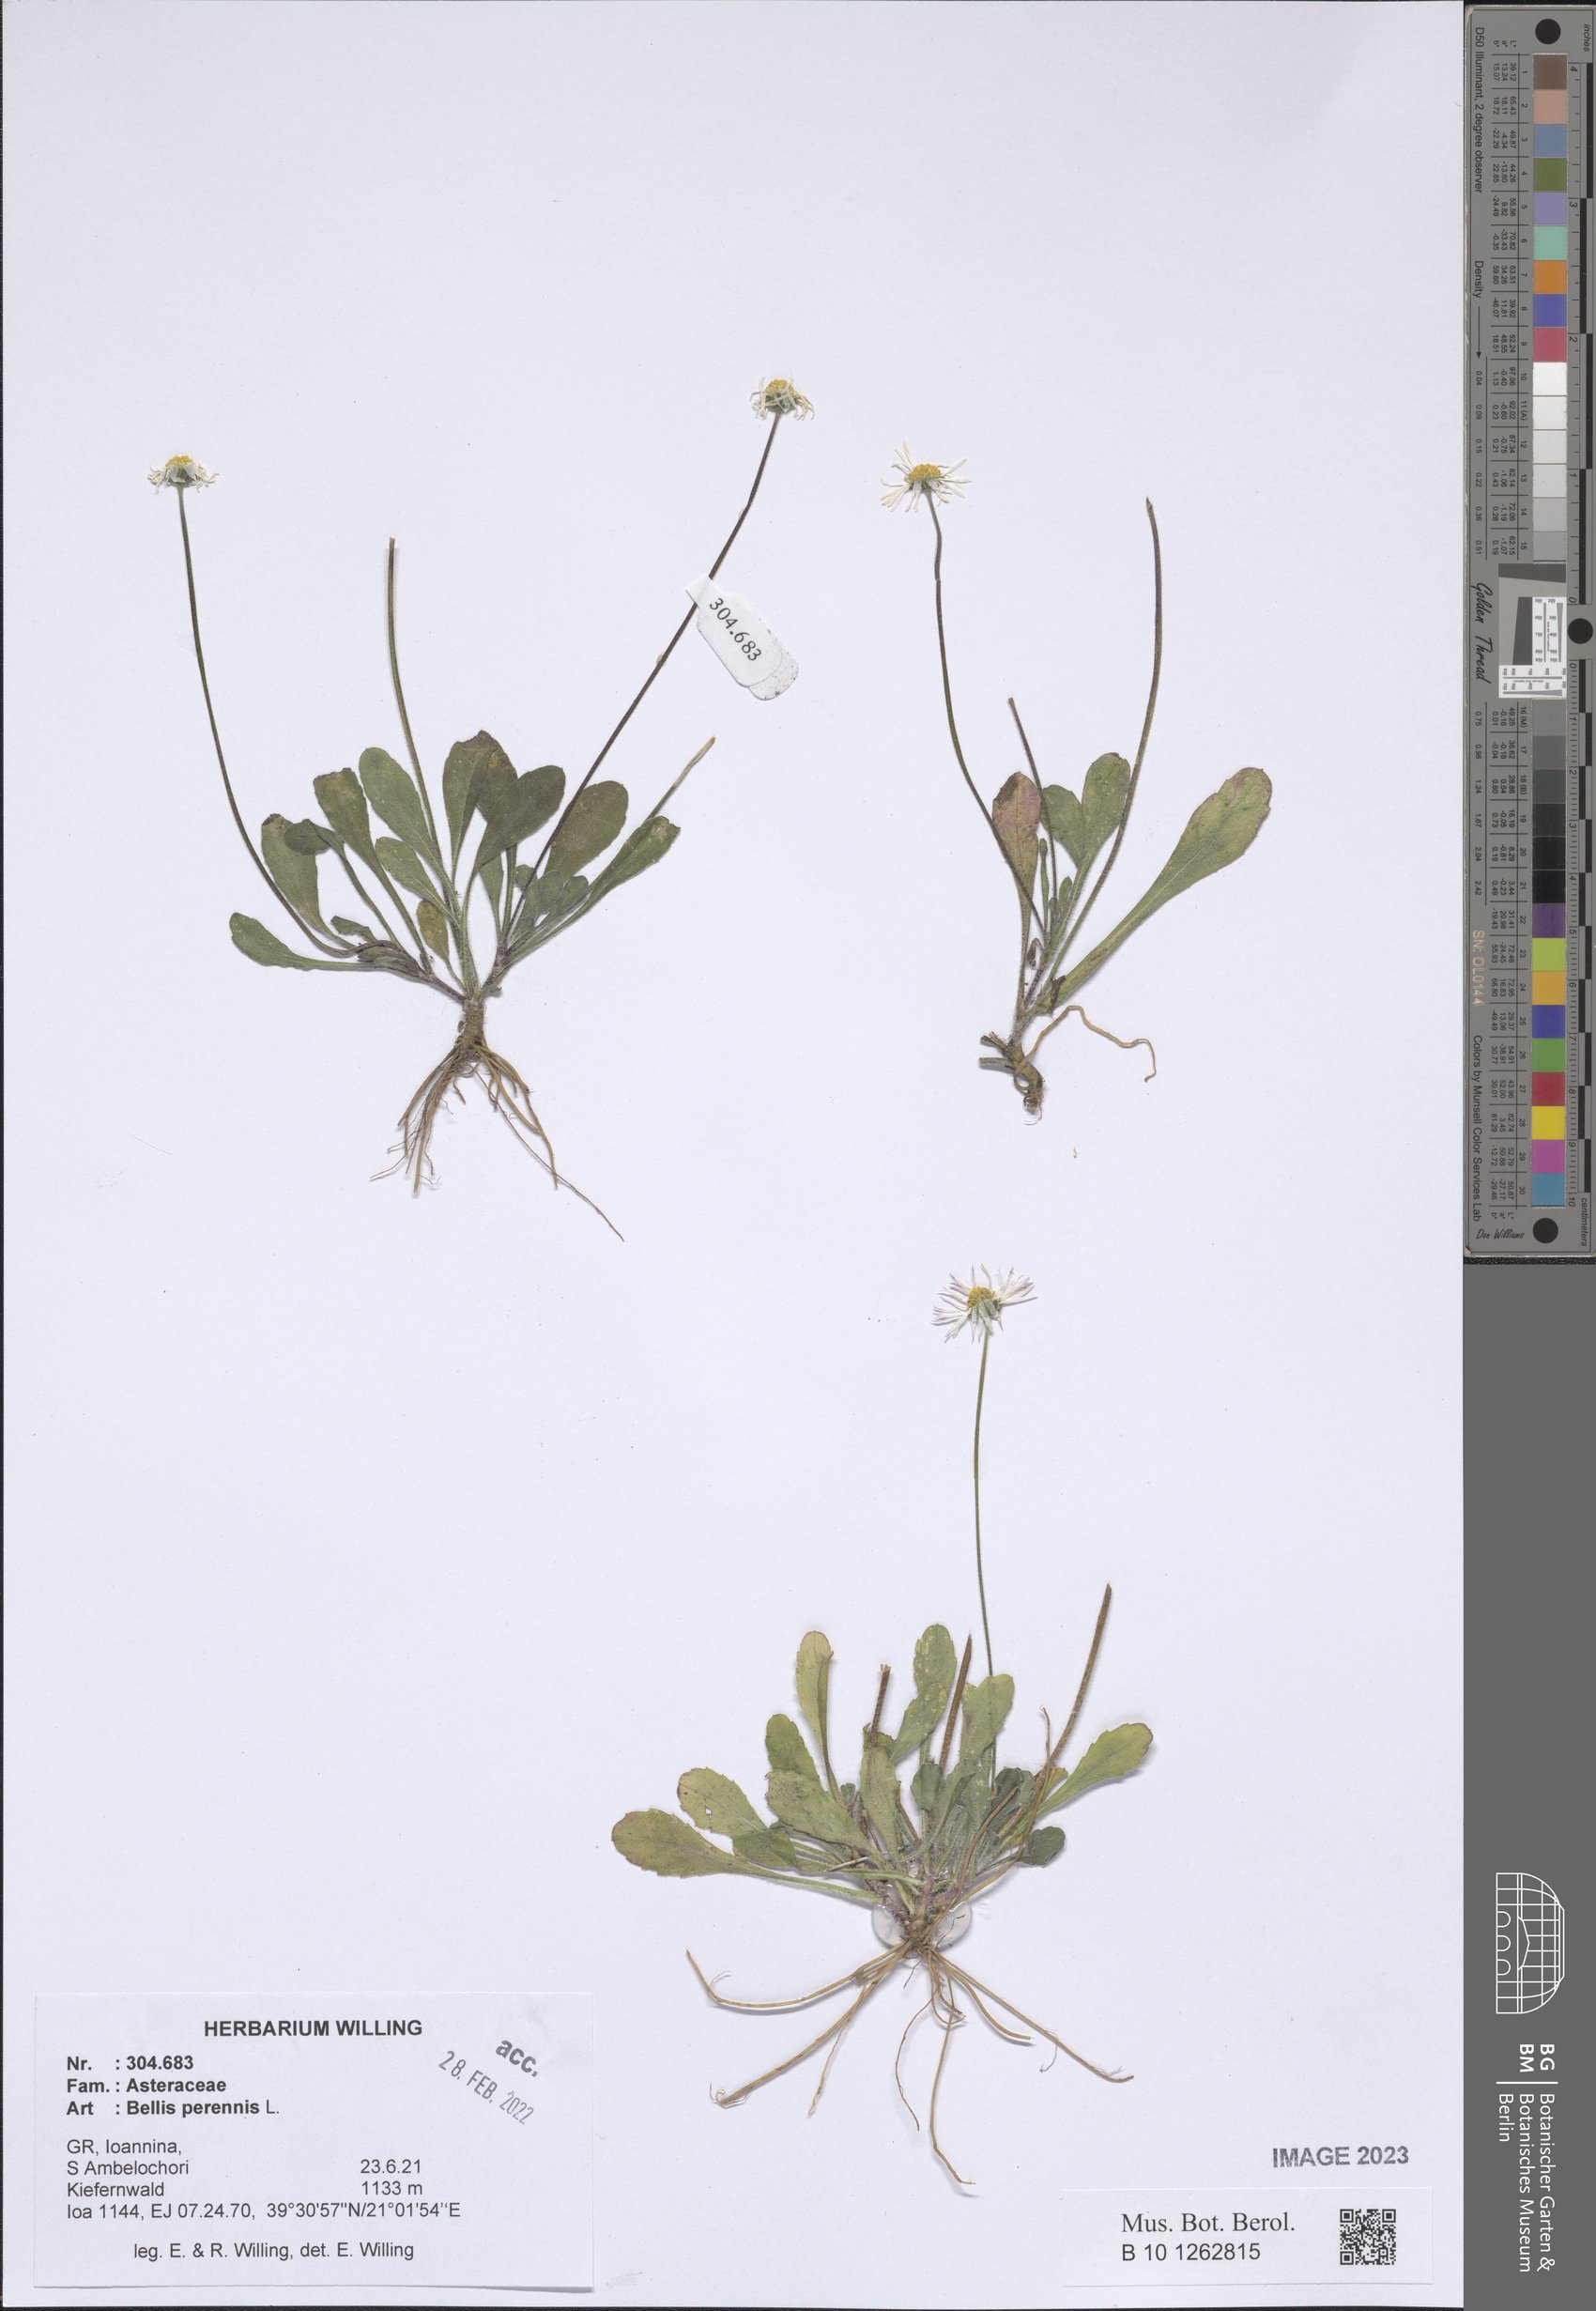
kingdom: Plantae
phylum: Tracheophyta
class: Magnoliopsida
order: Asterales
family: Asteraceae
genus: Bellis
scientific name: Bellis perennis
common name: Lawndaisy
